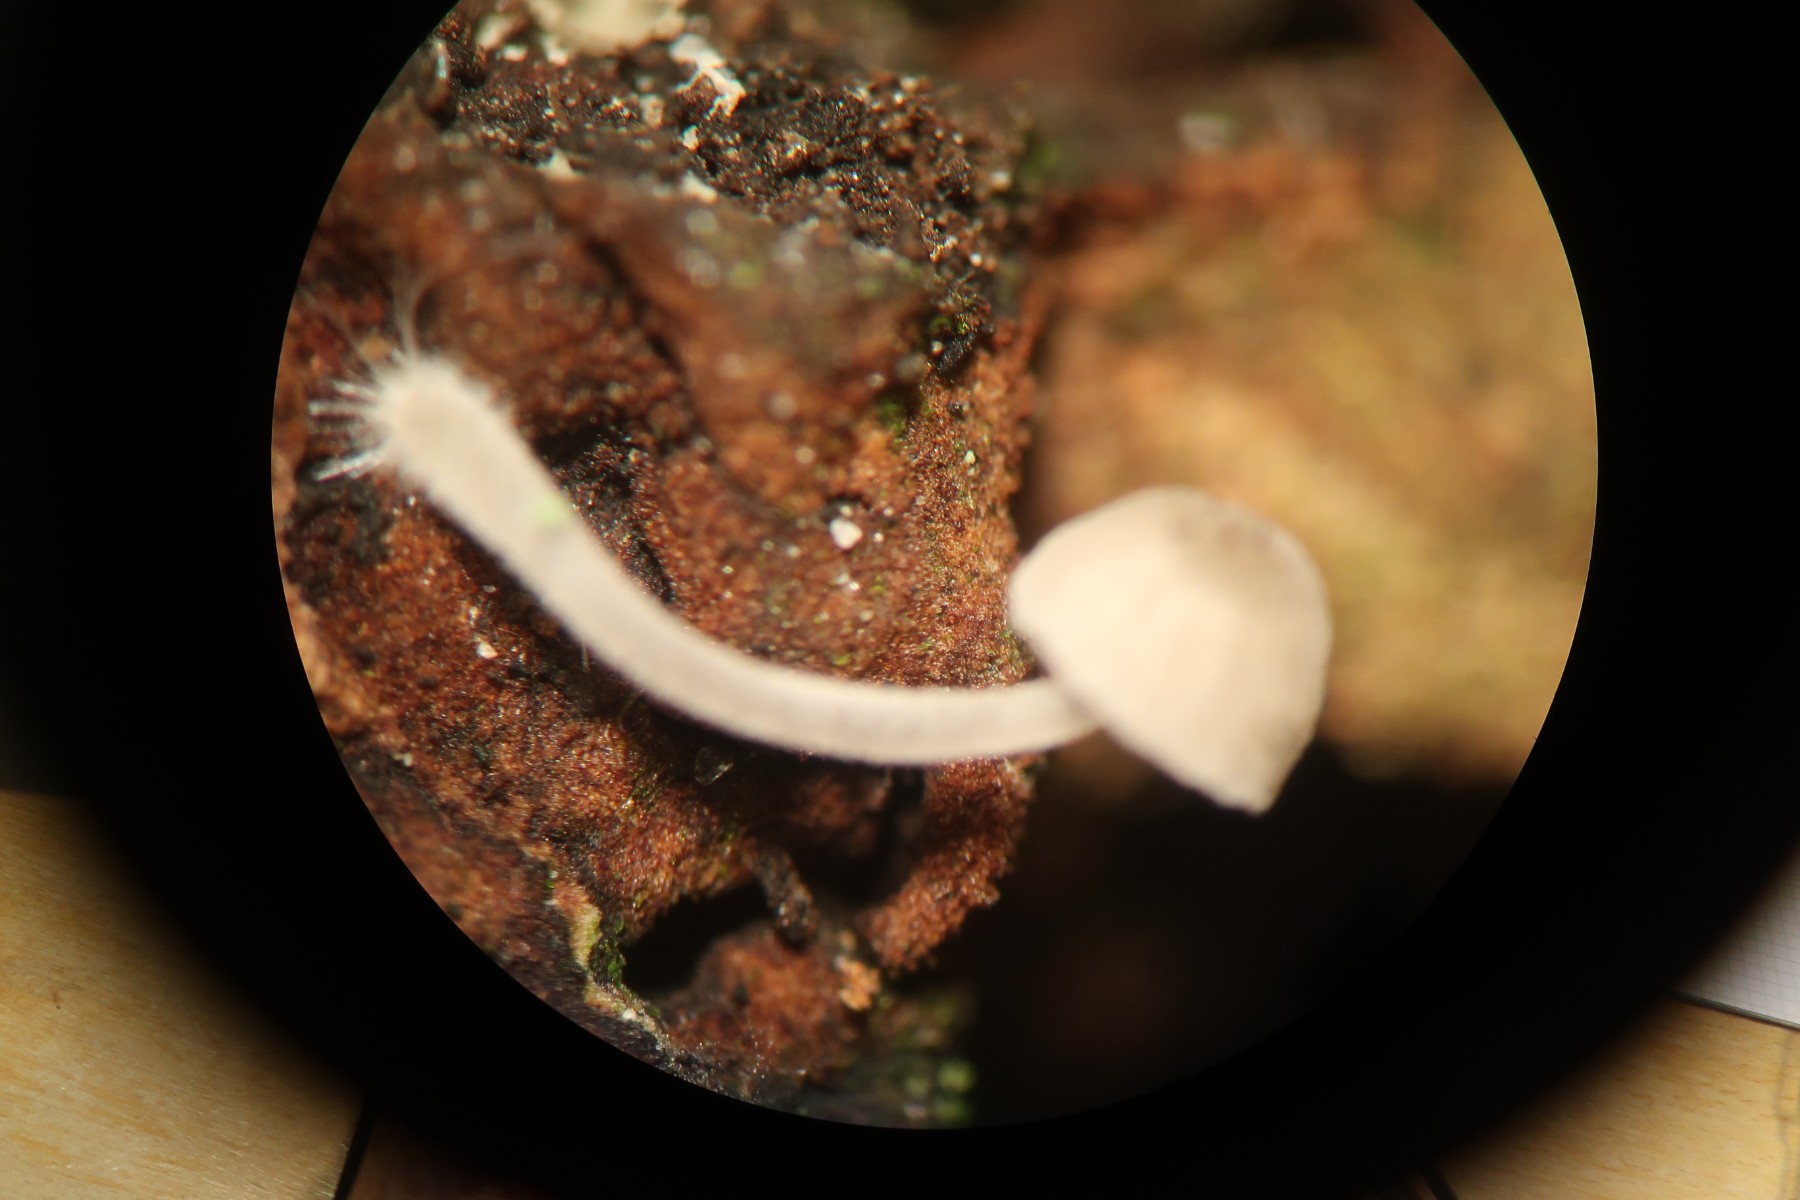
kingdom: Fungi
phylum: Basidiomycota
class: Agaricomycetes
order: Agaricales
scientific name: Agaricales
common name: champignonordenen
